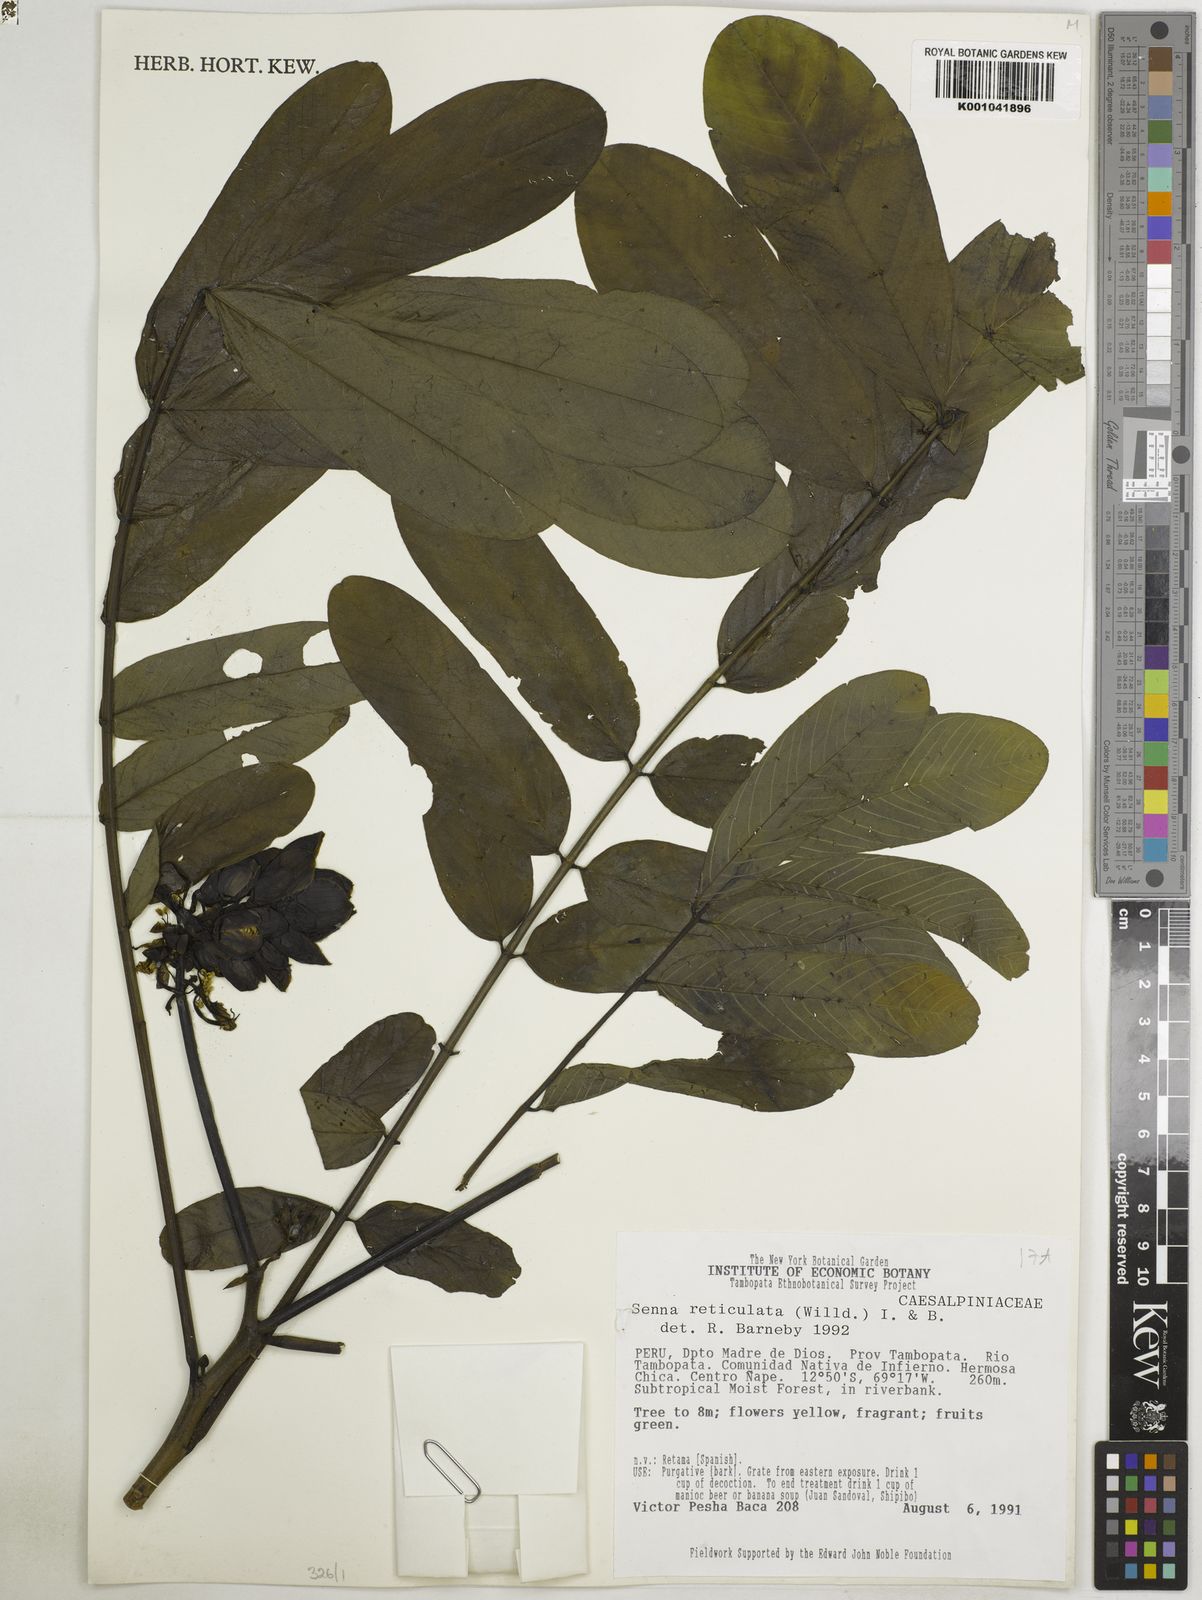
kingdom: Plantae
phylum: Tracheophyta
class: Magnoliopsida
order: Fabales
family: Fabaceae
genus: Senna
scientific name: Senna reticulata
